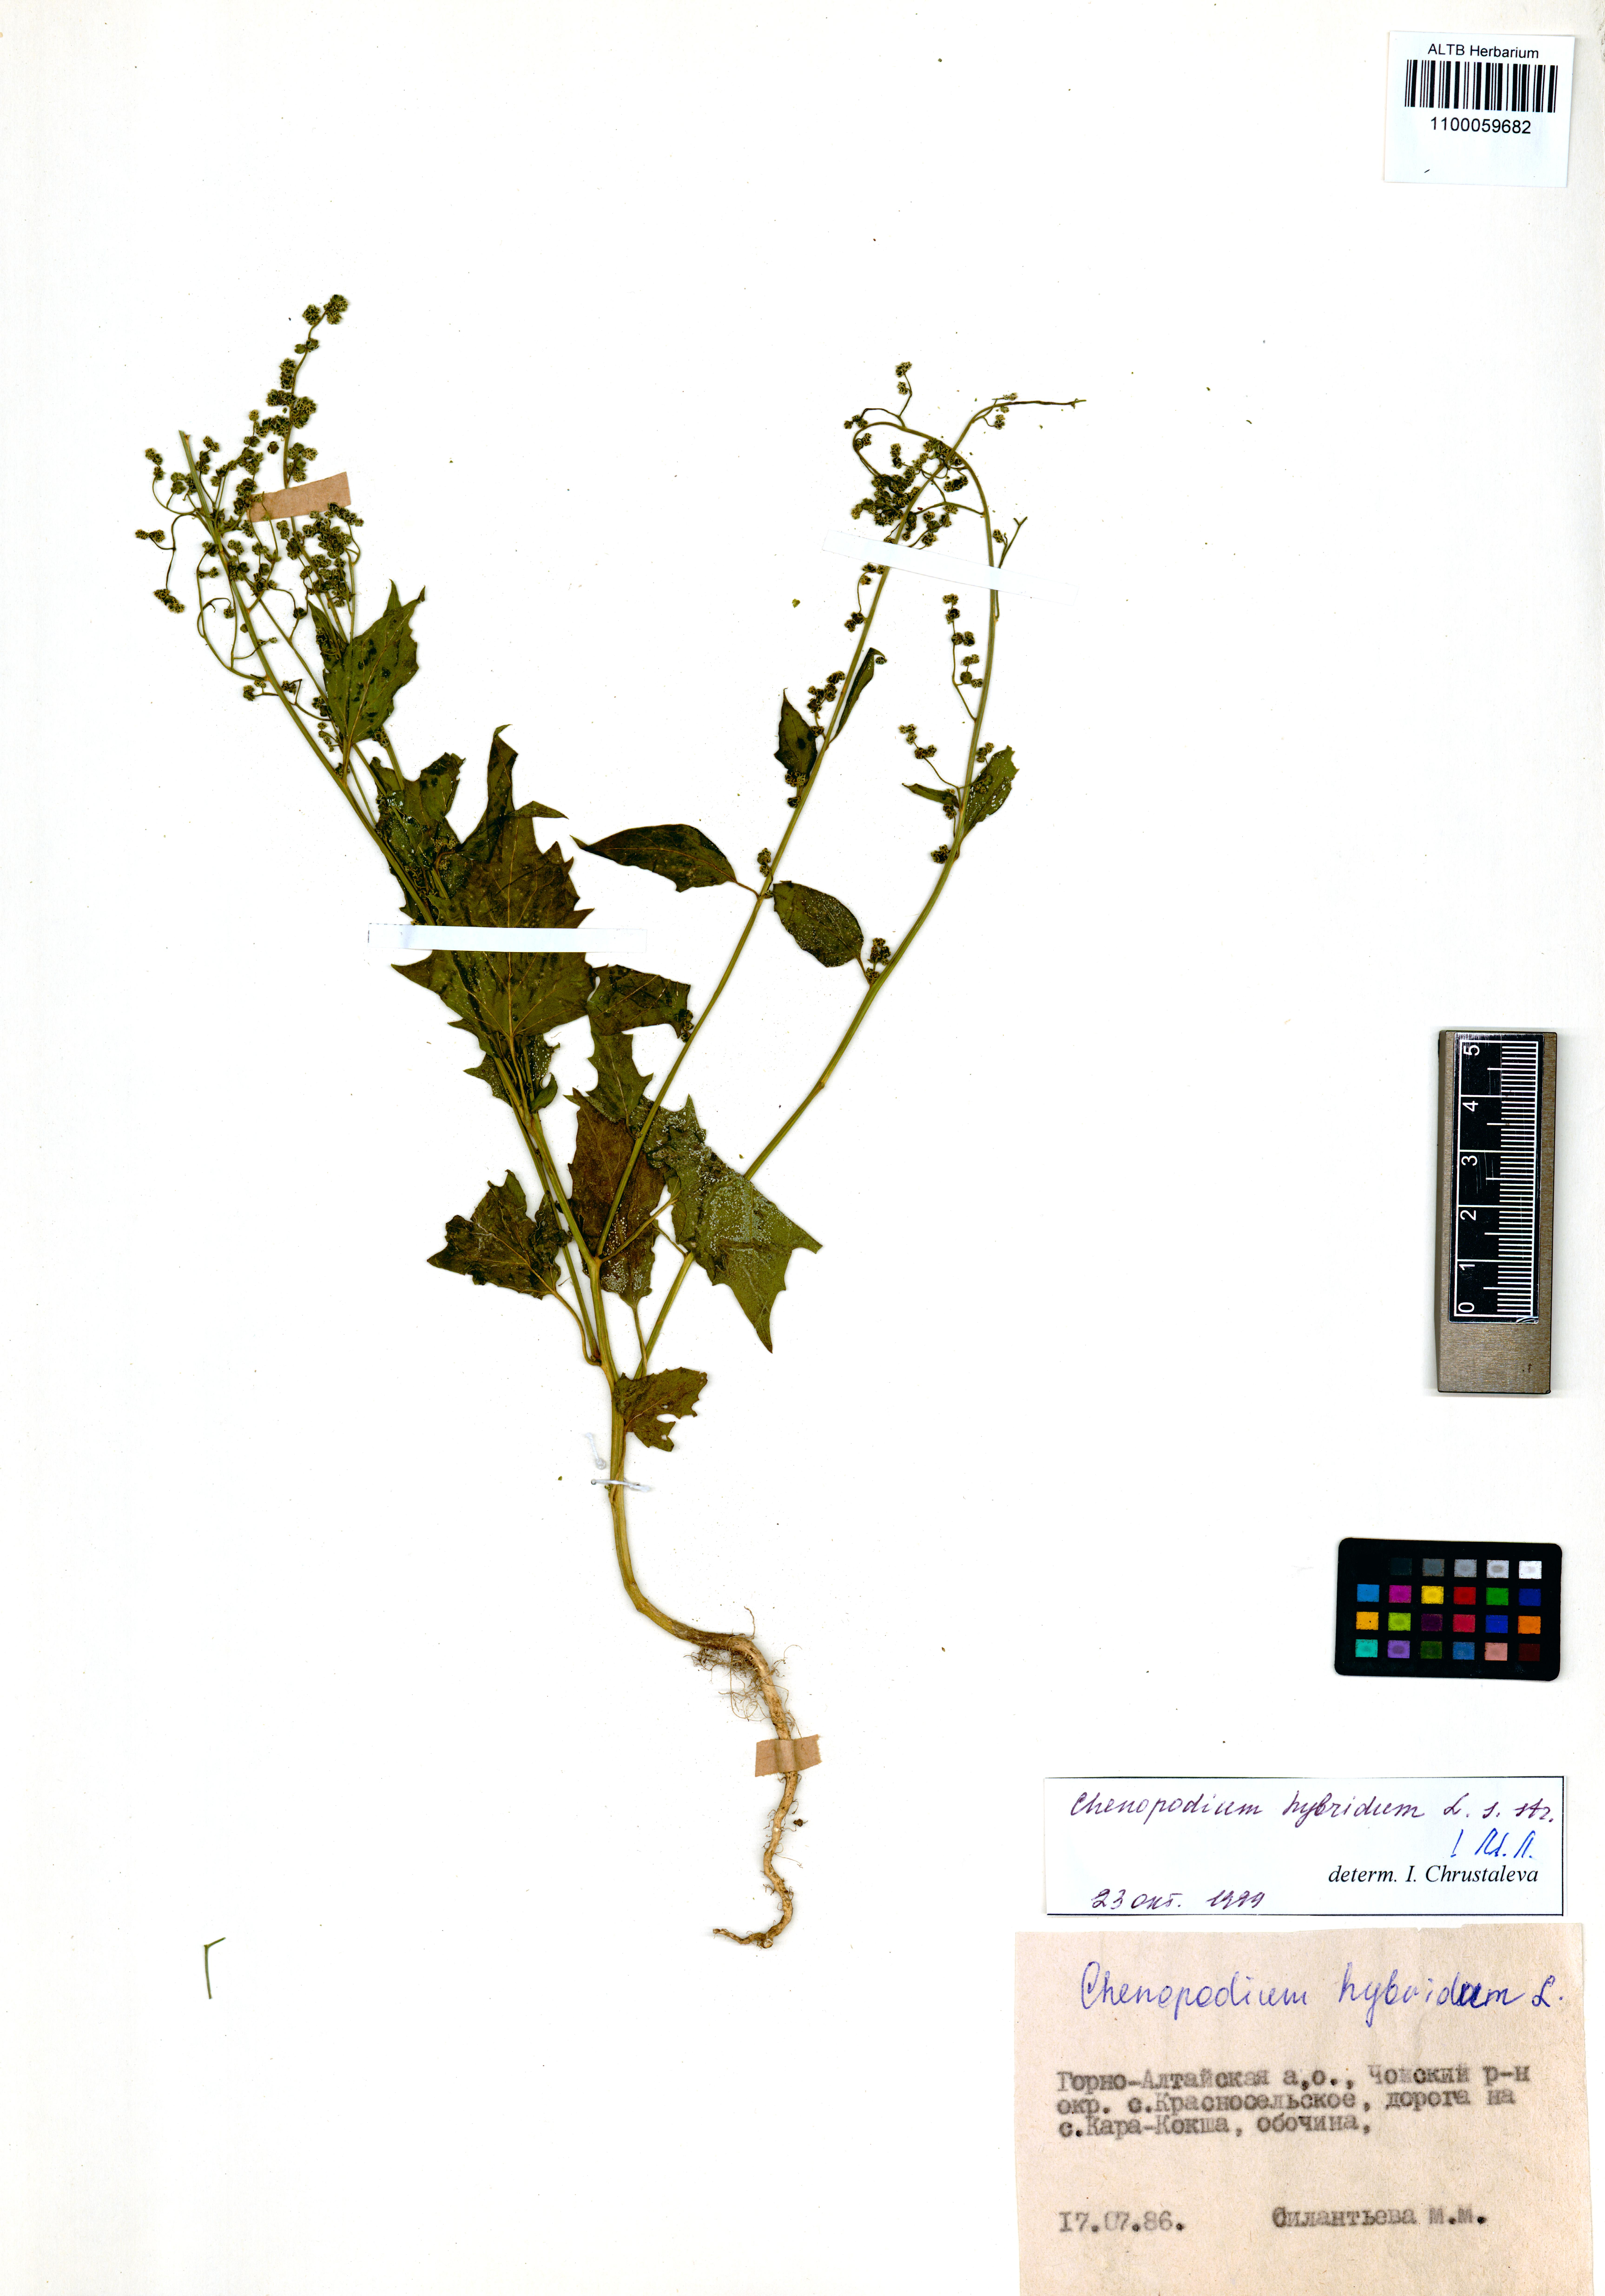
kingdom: Plantae
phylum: Tracheophyta
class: Magnoliopsida
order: Caryophyllales
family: Amaranthaceae
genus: Chenopodiastrum
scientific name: Chenopodiastrum hybridum
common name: Mapleleaf goosefoot
